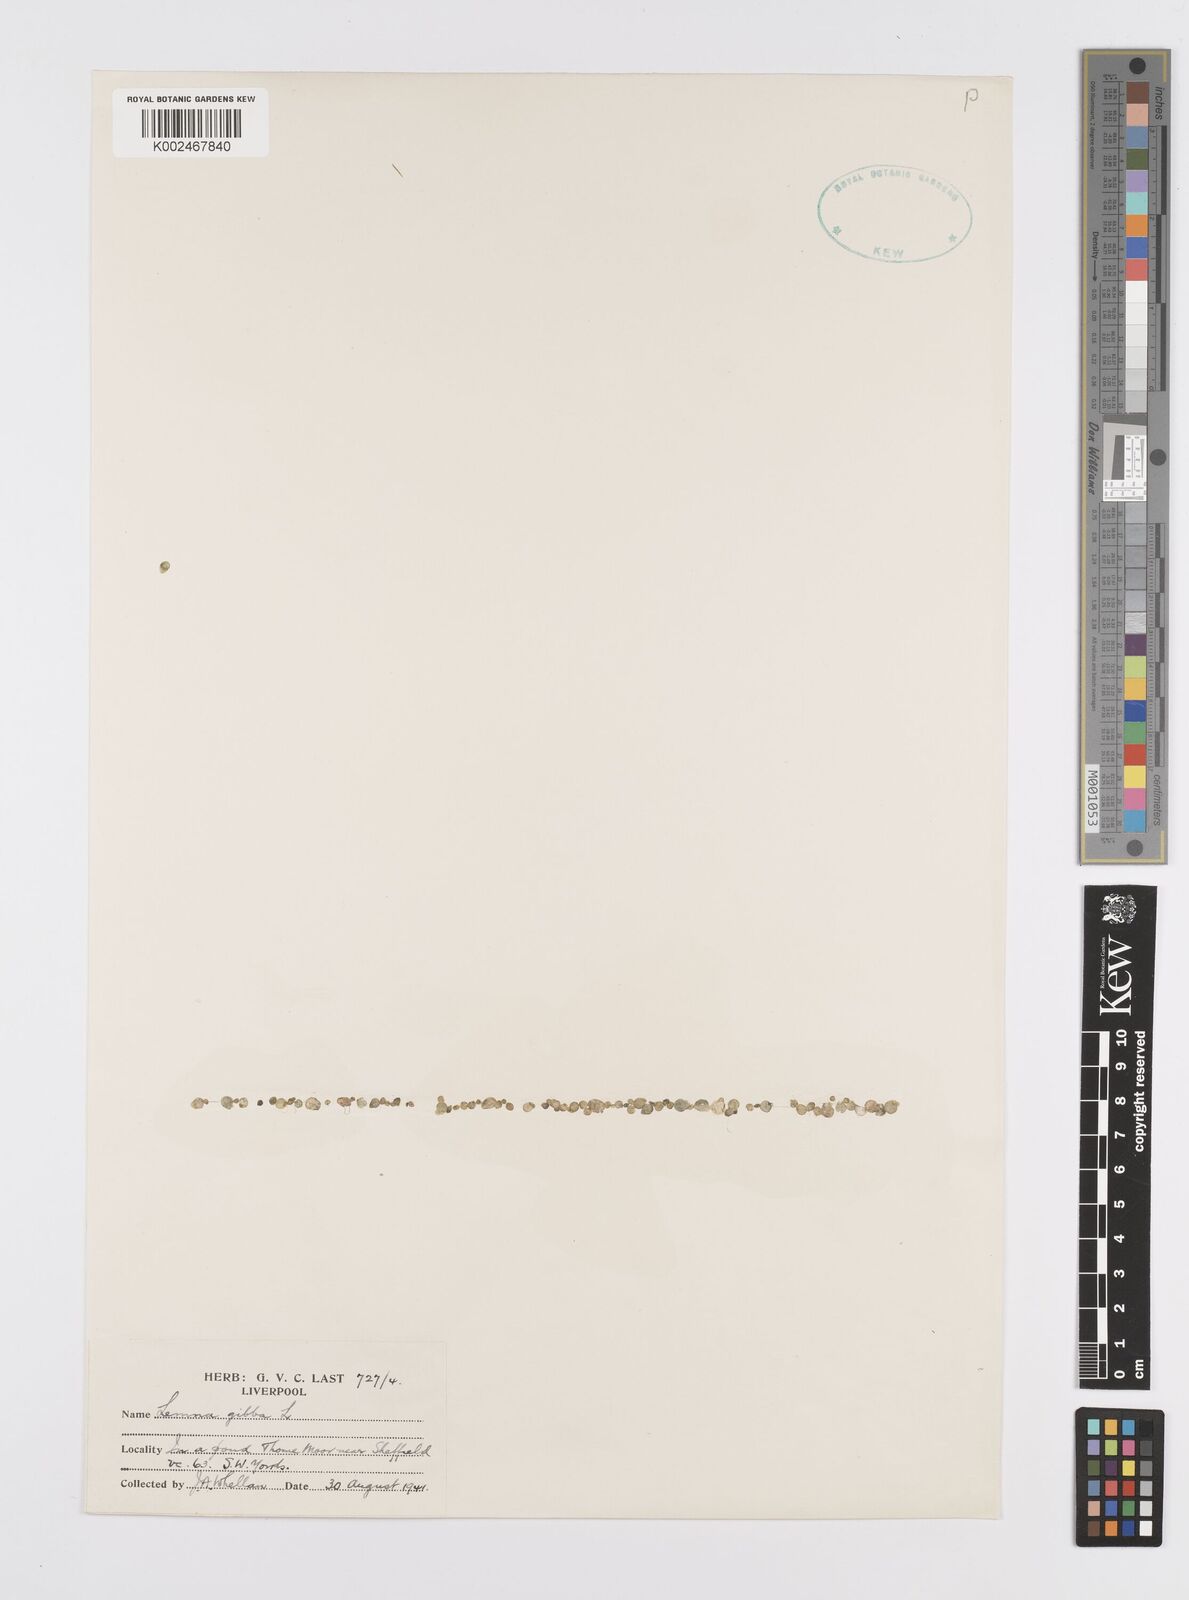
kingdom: Plantae
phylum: Tracheophyta
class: Liliopsida
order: Alismatales
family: Araceae
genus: Lemna
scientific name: Lemna gibba
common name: Fat duckweed
